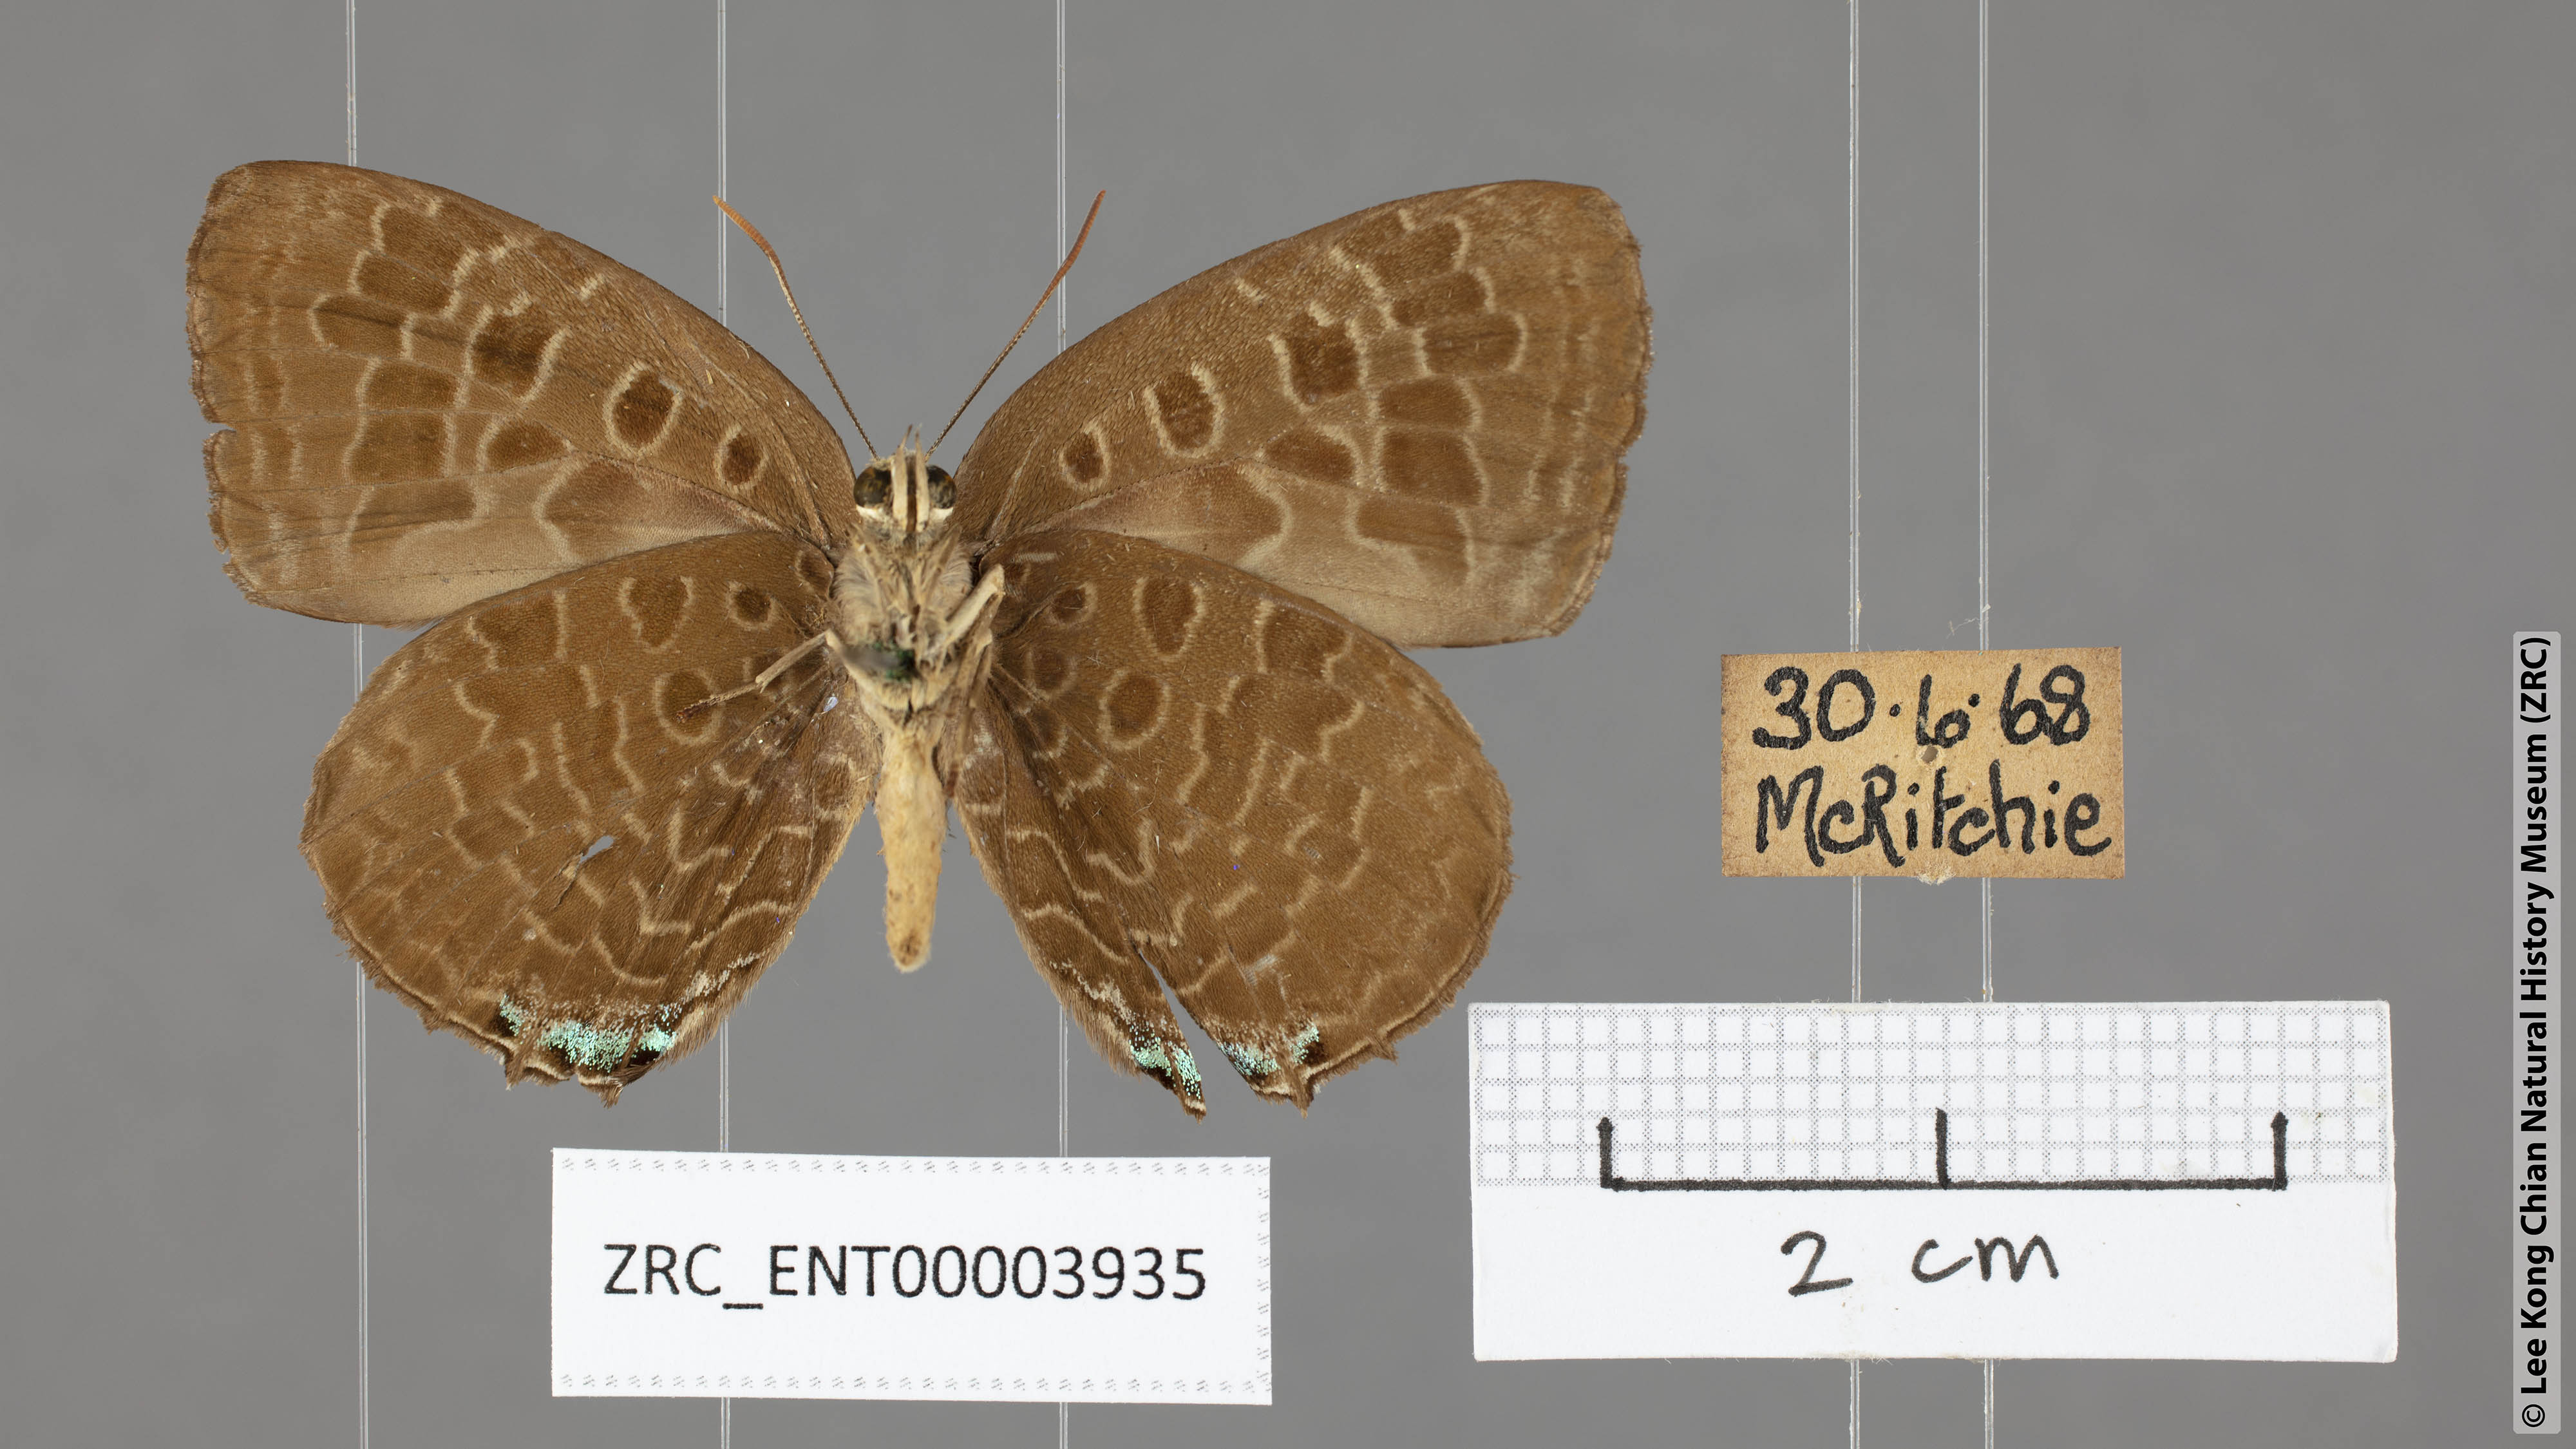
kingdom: Animalia
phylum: Arthropoda
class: Insecta
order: Lepidoptera
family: Lycaenidae
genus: Arhopala
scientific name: Arhopala eumolphus
